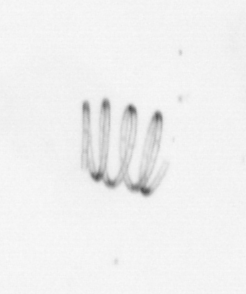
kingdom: Chromista
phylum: Ochrophyta
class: Bacillariophyceae
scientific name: Bacillariophyceae
